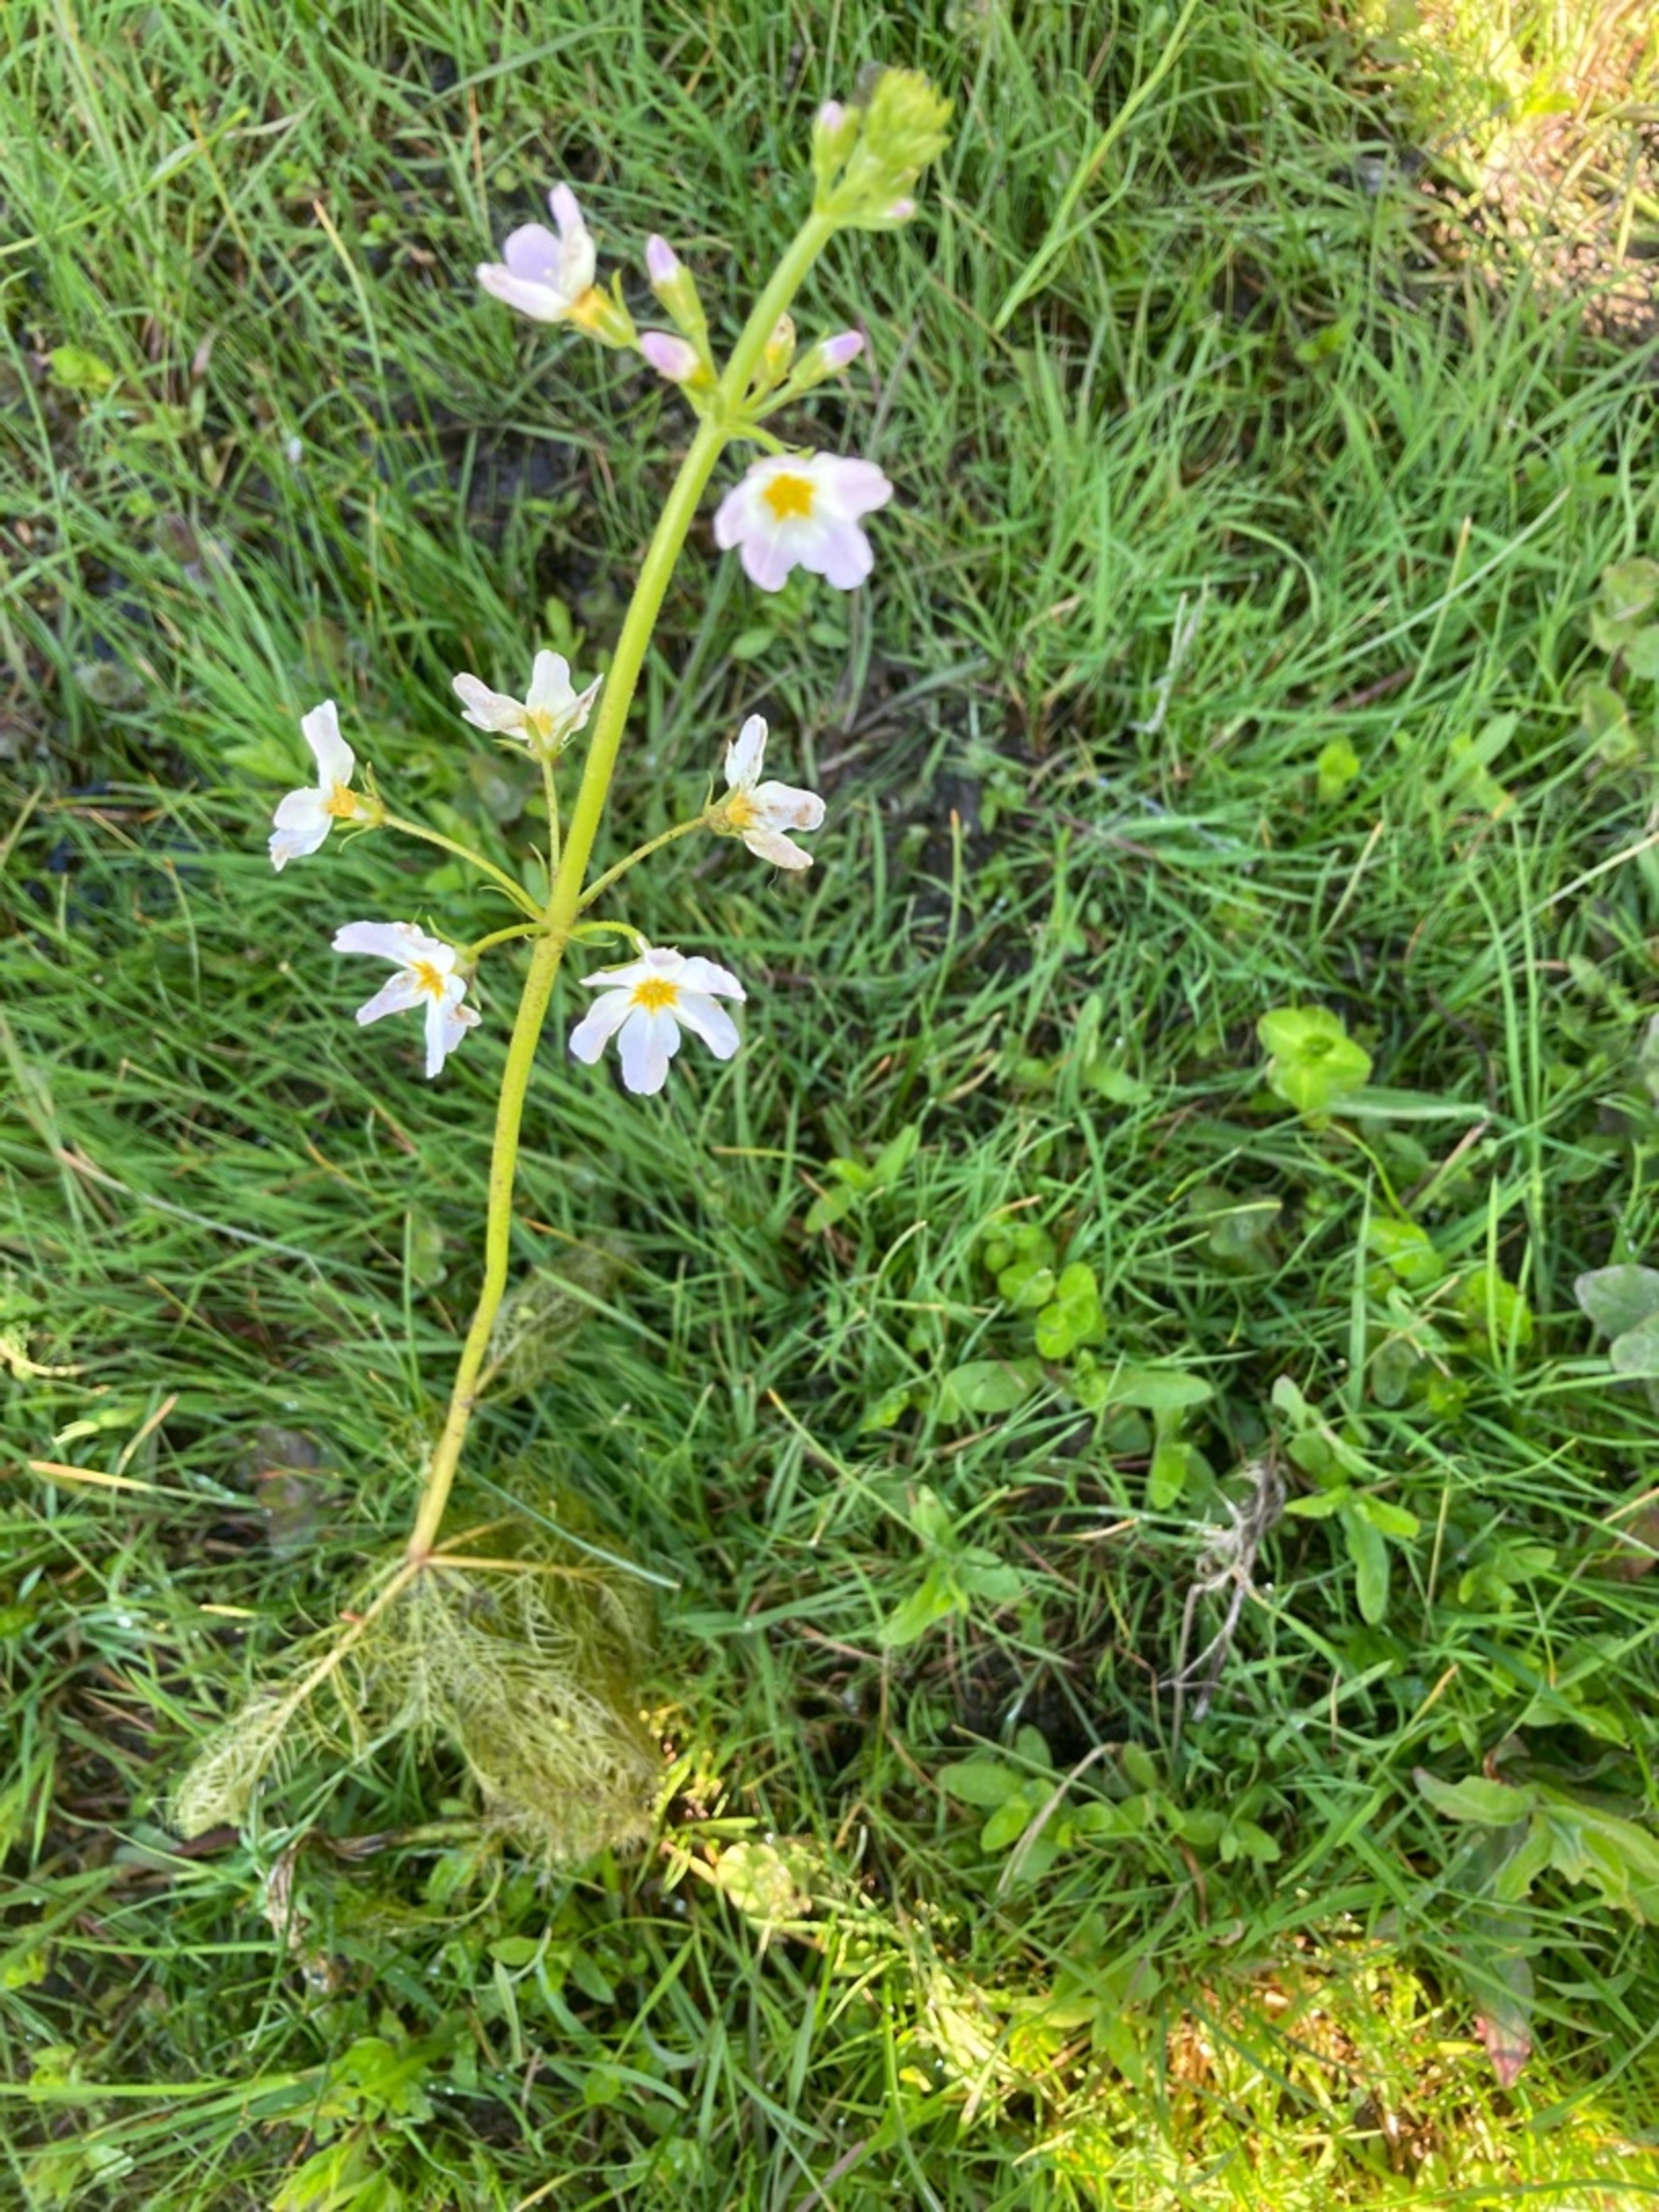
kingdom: Plantae
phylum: Tracheophyta
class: Magnoliopsida
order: Ericales
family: Primulaceae
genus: Hottonia
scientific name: Hottonia palustris
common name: Vandrøllike
